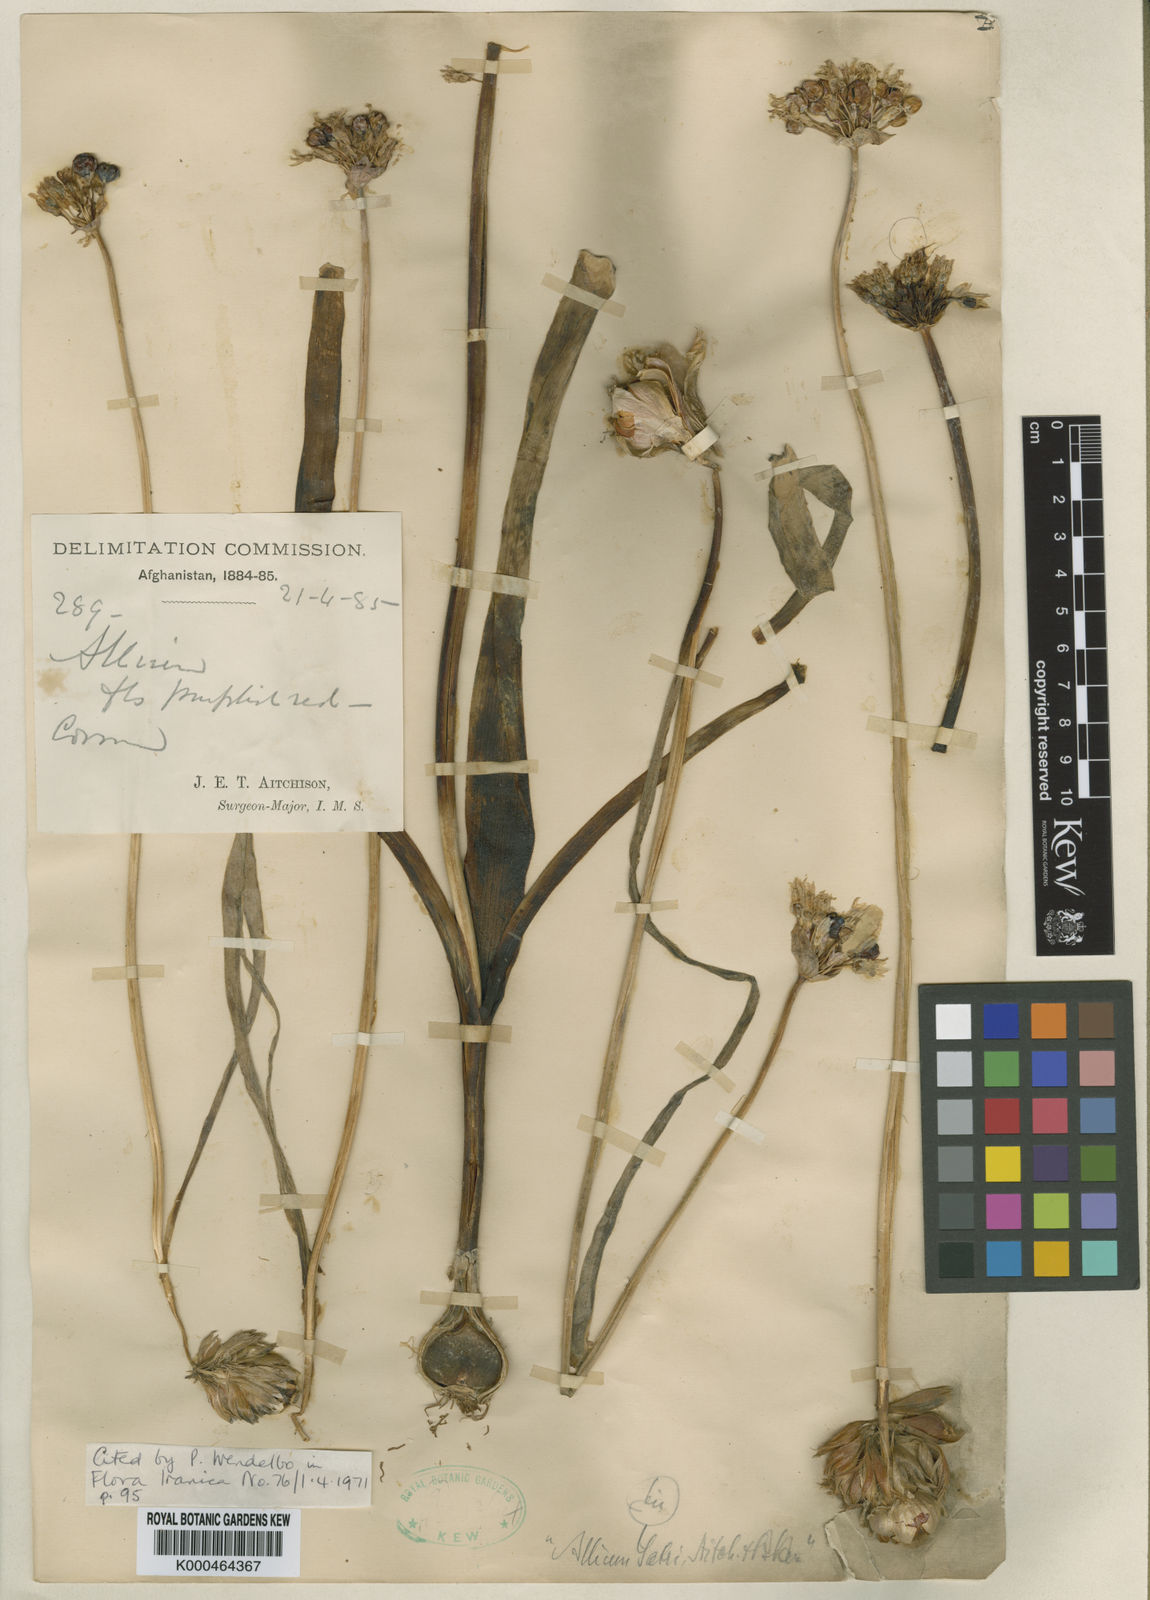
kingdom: Plantae
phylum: Tracheophyta
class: Liliopsida
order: Asparagales
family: Amaryllidaceae
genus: Allium
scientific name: Allium regelii
